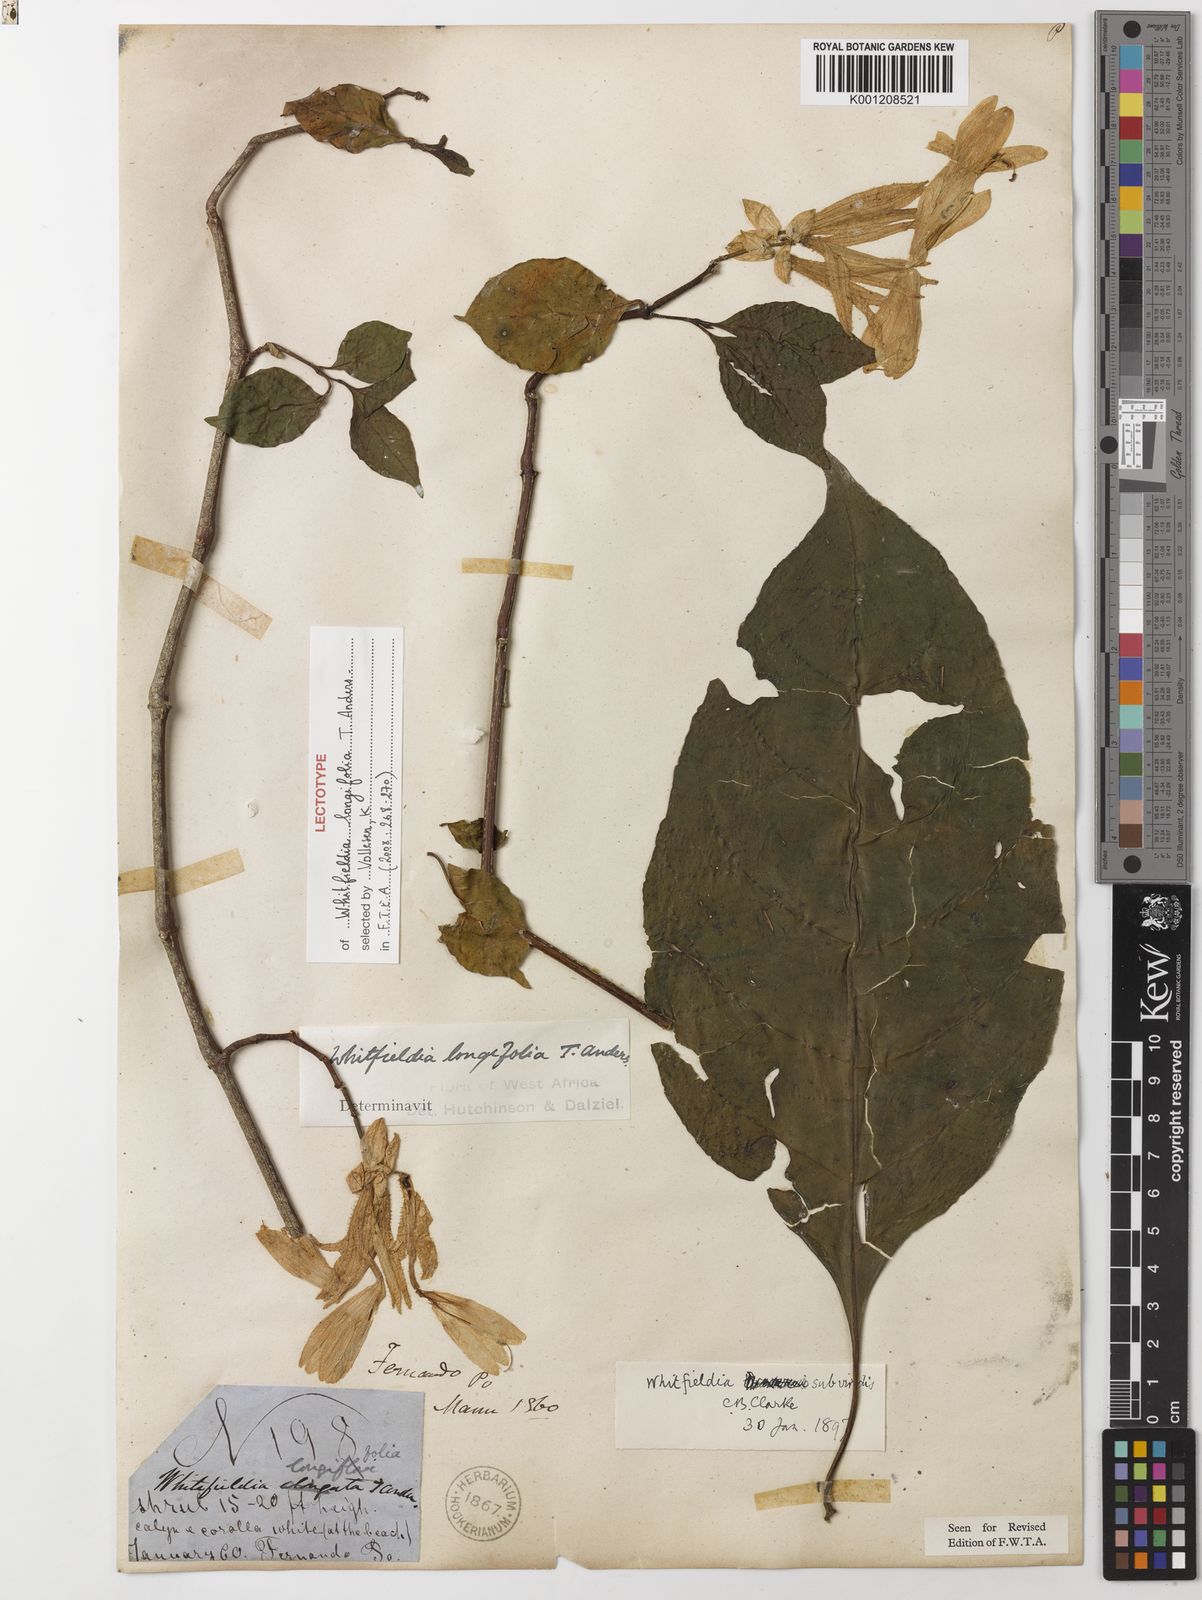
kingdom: Plantae
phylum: Tracheophyta
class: Magnoliopsida
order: Lamiales
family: Acanthaceae
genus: Whitfieldia
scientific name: Whitfieldia elongata
